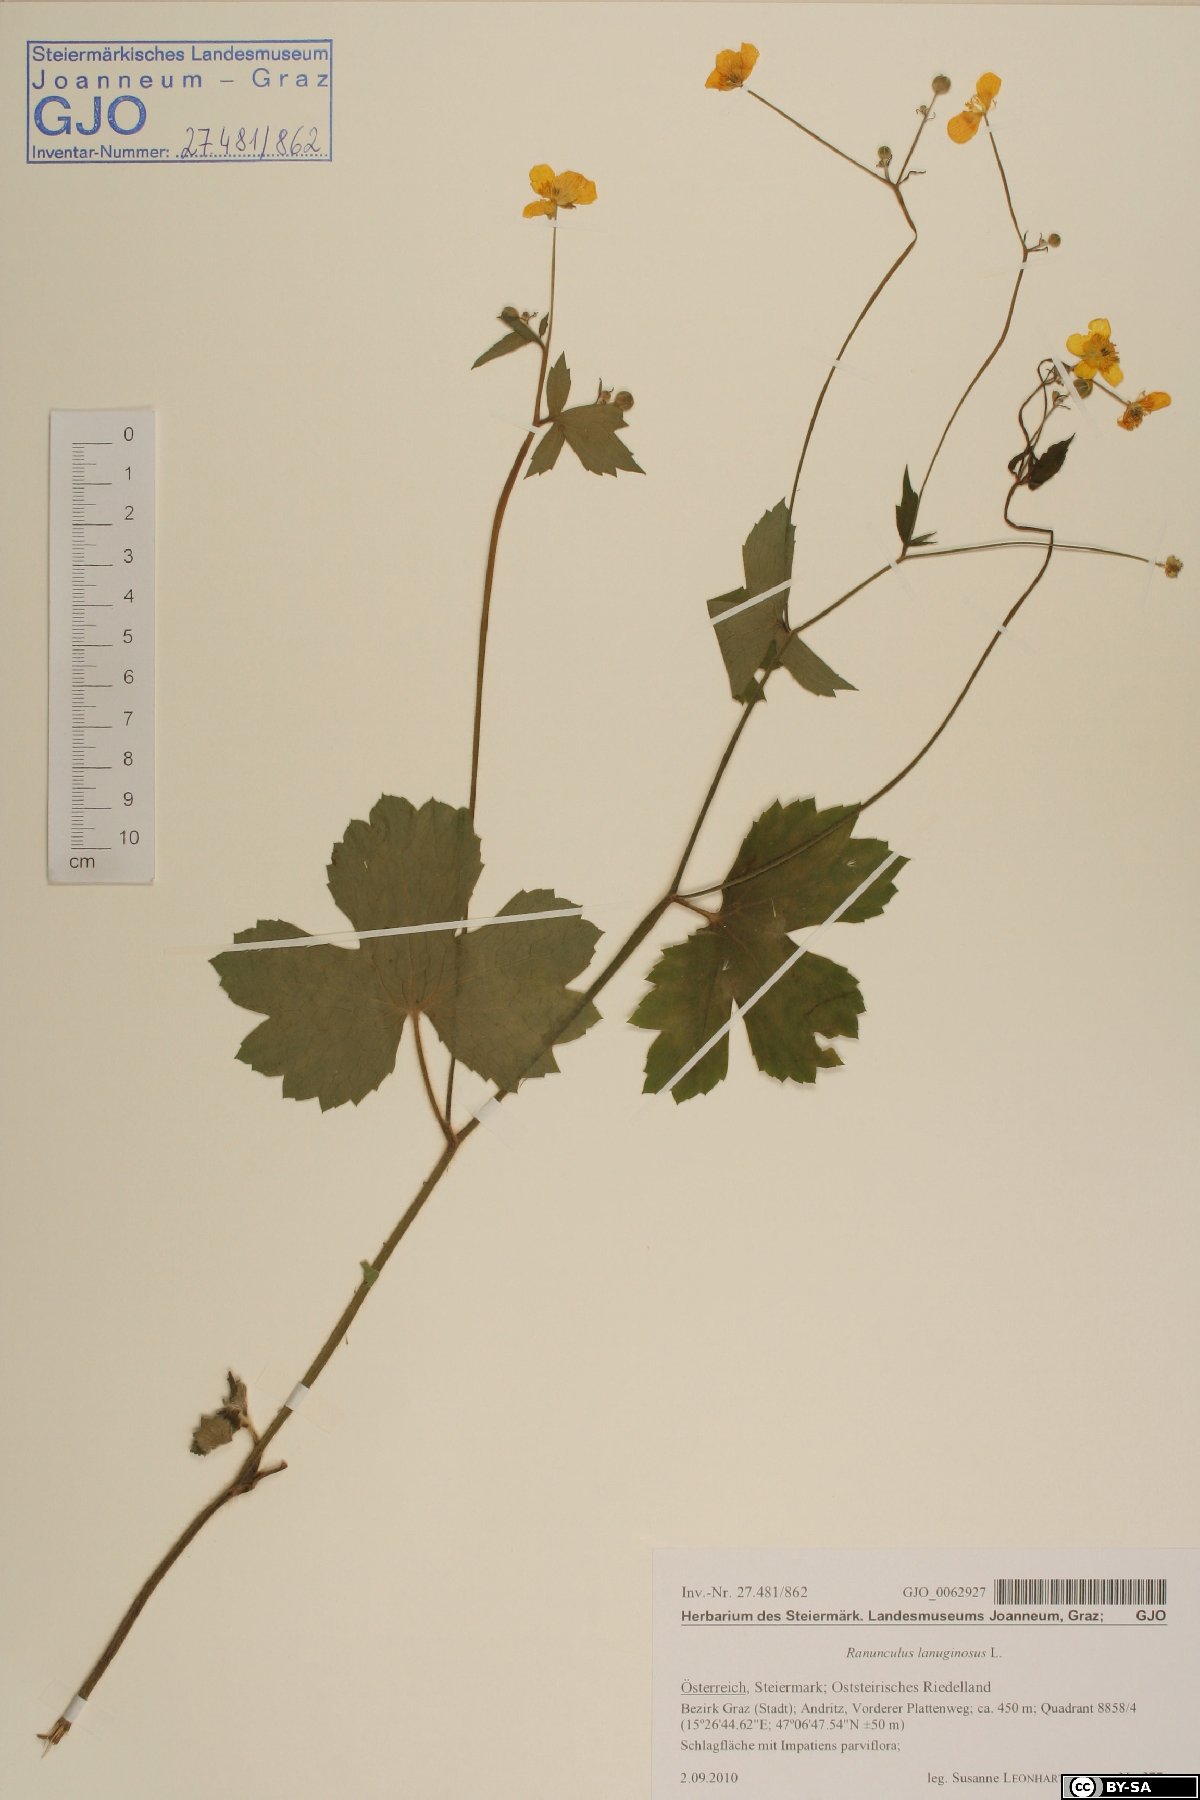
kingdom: Plantae
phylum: Tracheophyta
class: Magnoliopsida
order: Ranunculales
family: Ranunculaceae
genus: Ranunculus
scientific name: Ranunculus lanuginosus
